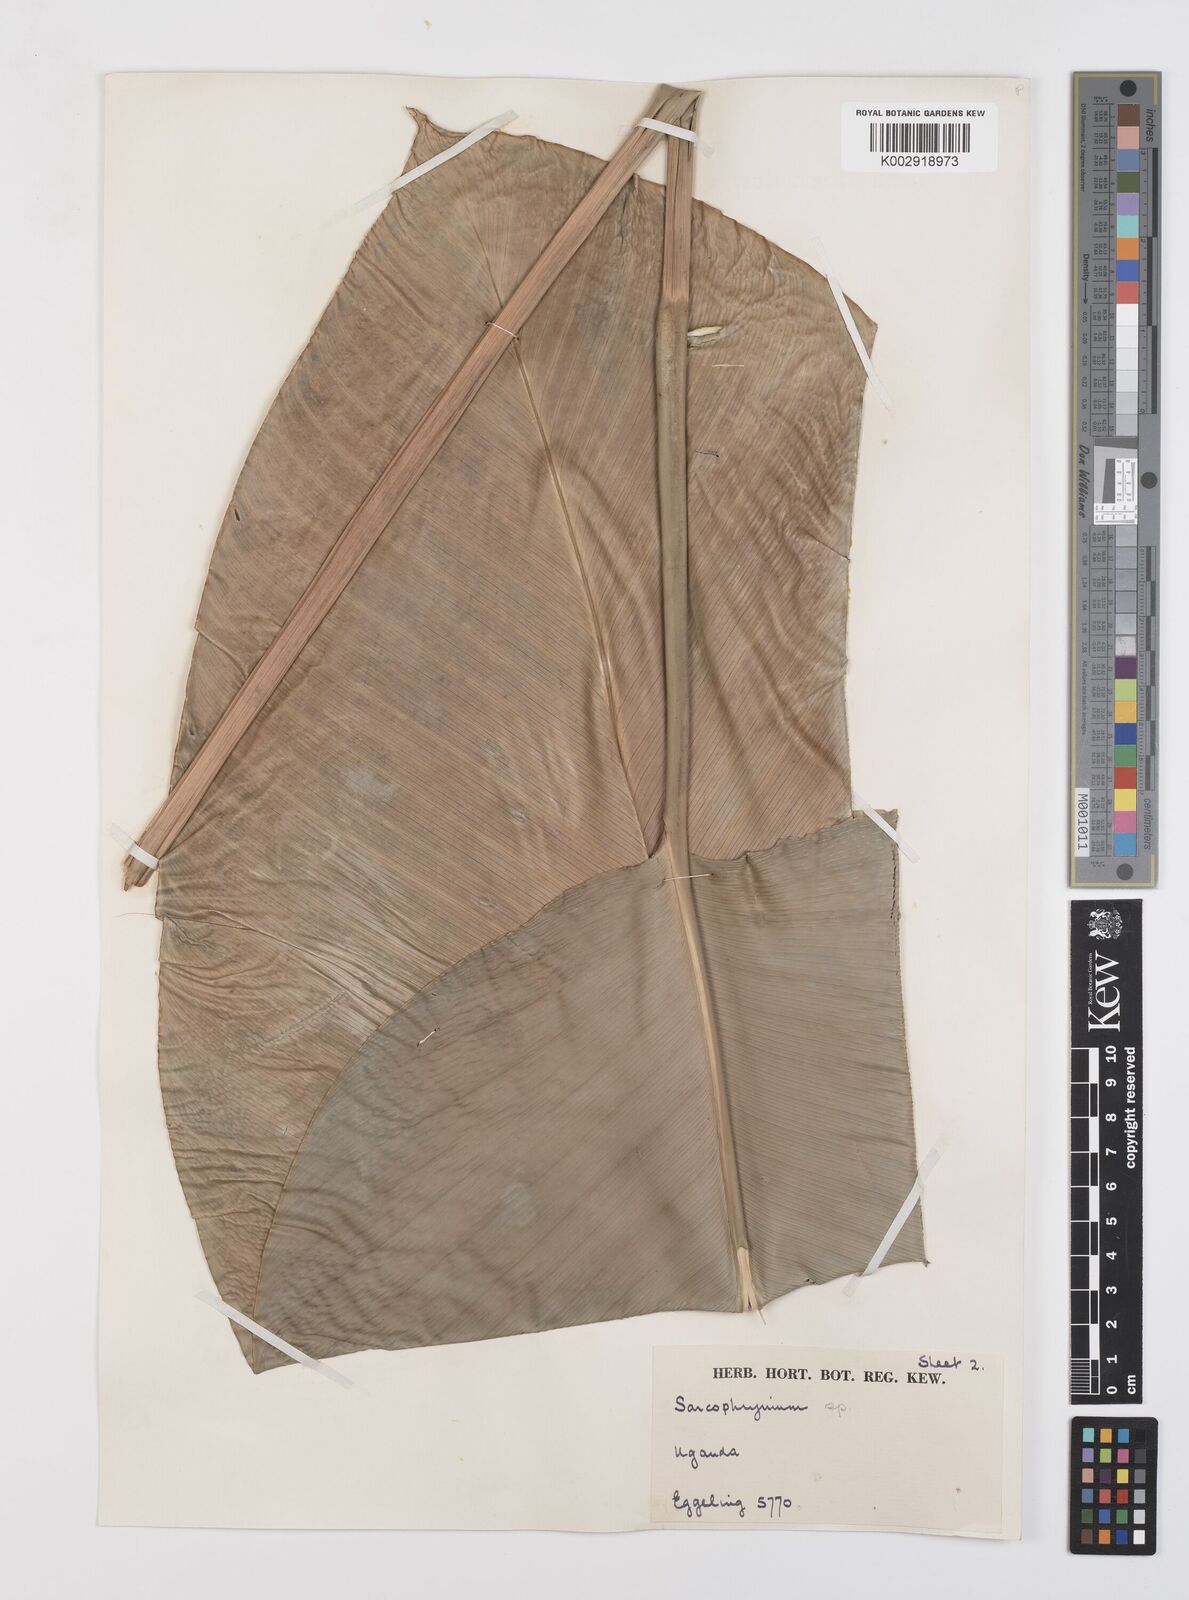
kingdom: Plantae
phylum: Tracheophyta
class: Liliopsida
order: Zingiberales
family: Marantaceae
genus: Megaphrynium
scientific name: Megaphrynium gabonense
